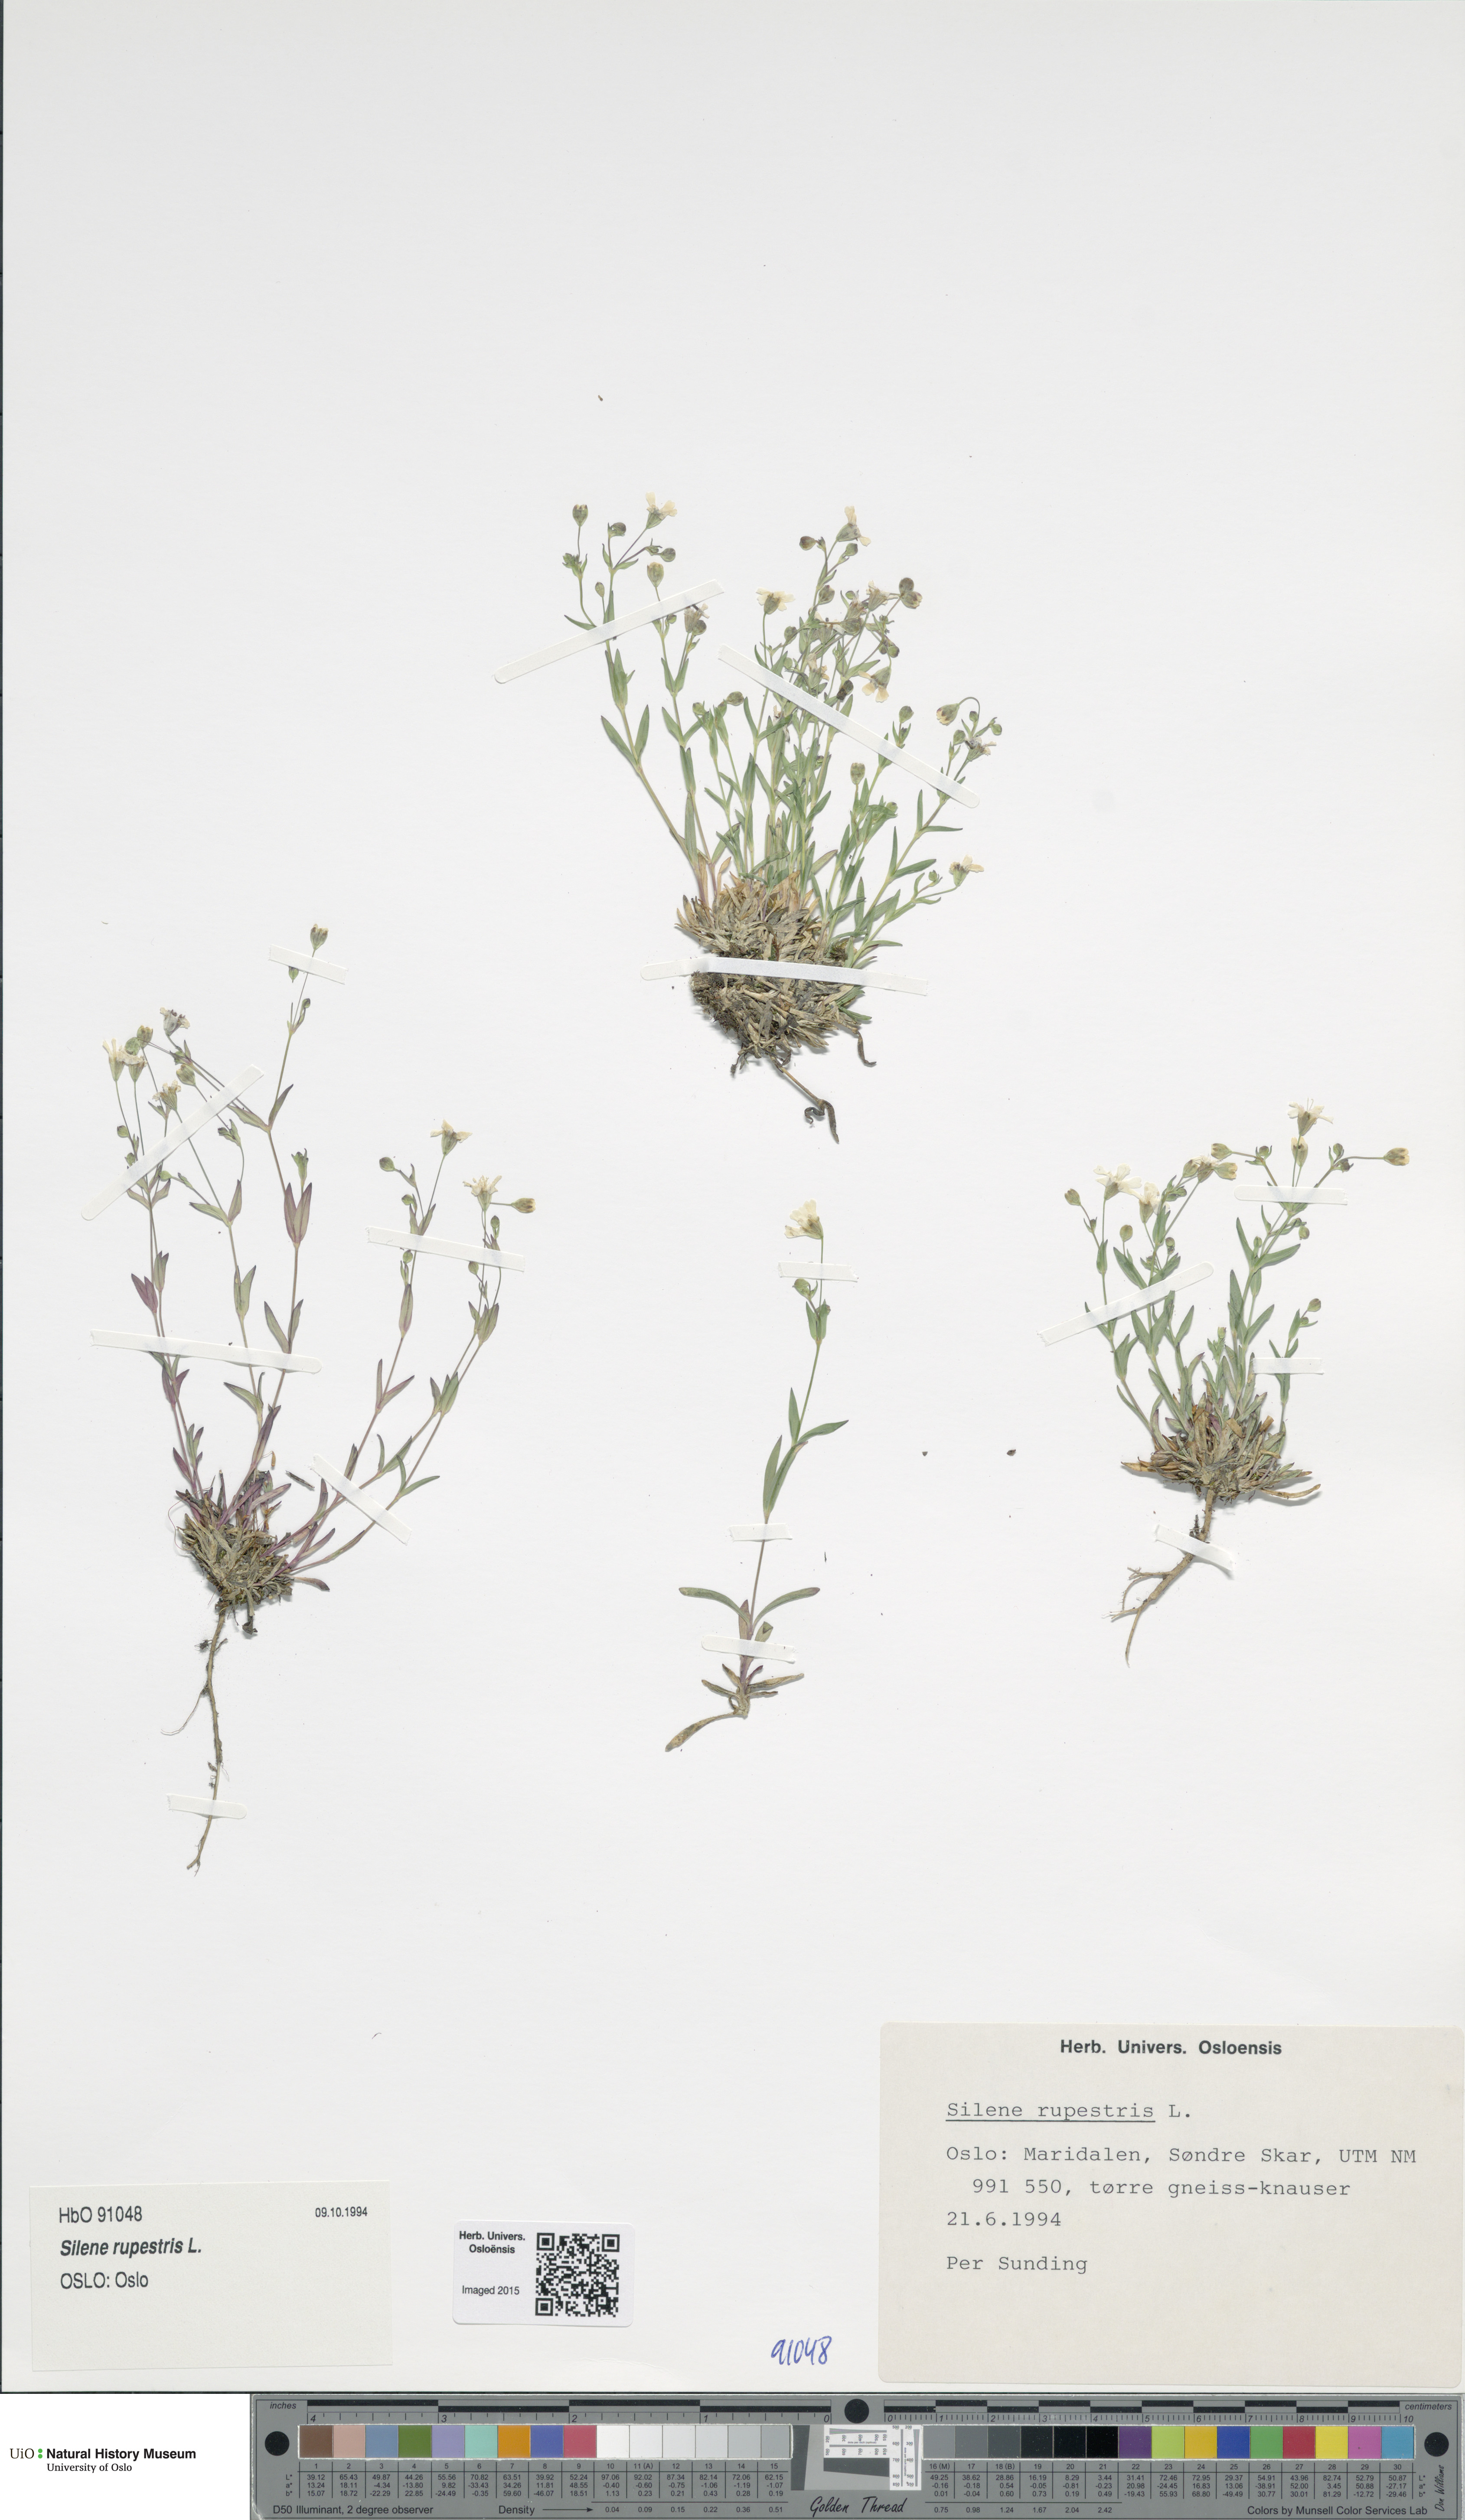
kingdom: Plantae
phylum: Tracheophyta
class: Magnoliopsida
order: Caryophyllales
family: Caryophyllaceae
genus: Atocion
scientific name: Atocion rupestre
